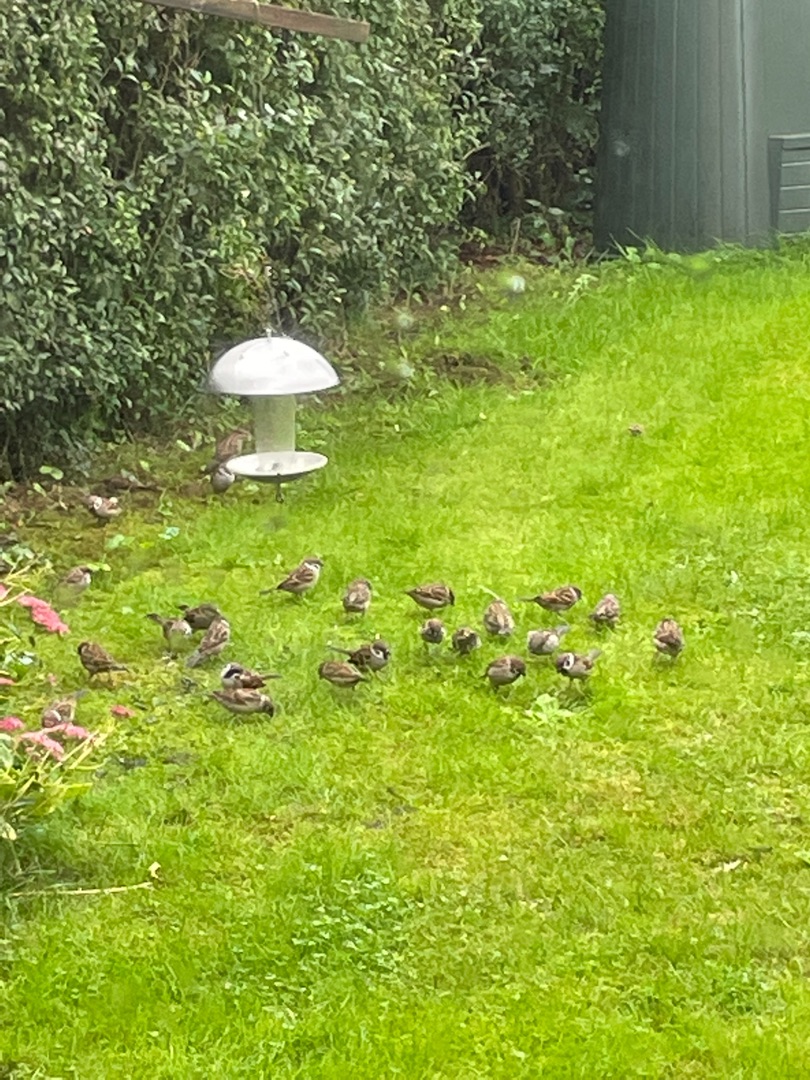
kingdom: Animalia
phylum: Chordata
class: Aves
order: Passeriformes
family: Passeridae
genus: Passer
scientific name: Passer montanus
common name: Skovspurv
